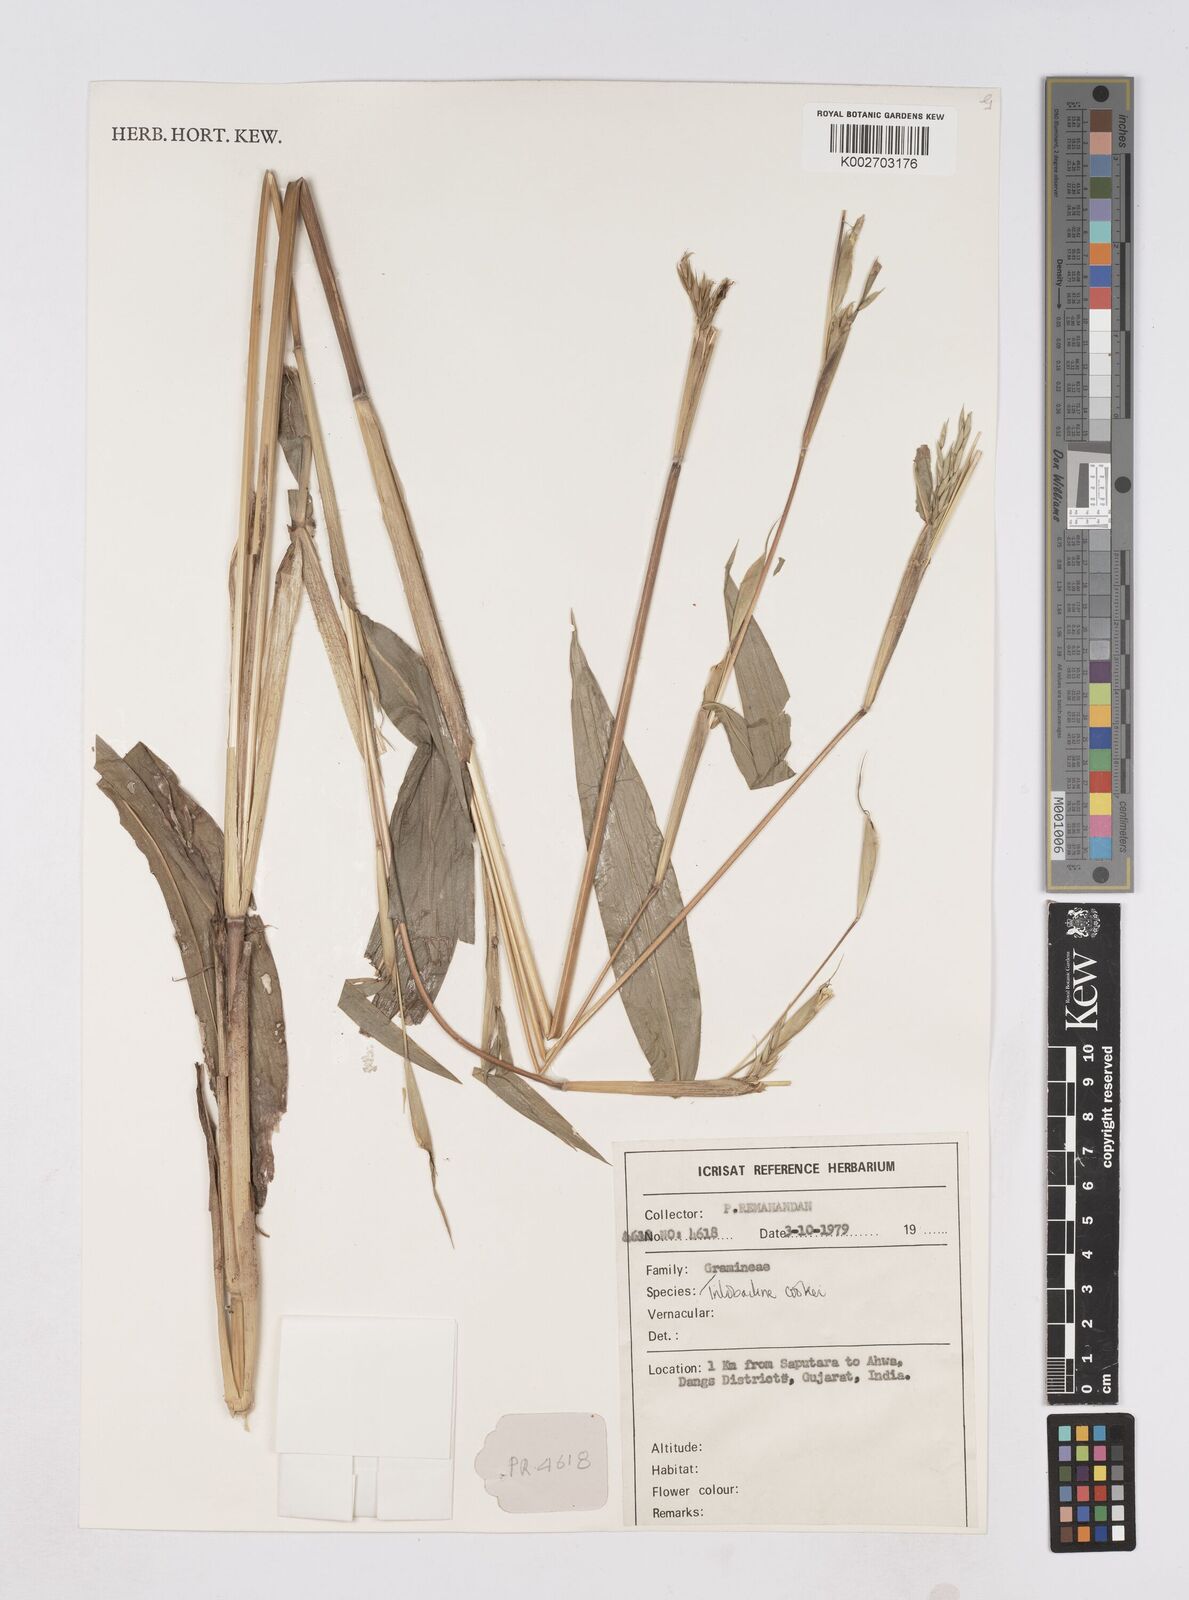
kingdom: Plantae
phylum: Tracheophyta
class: Liliopsida
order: Poales
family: Poaceae
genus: Trilobachne
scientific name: Trilobachne cookei
